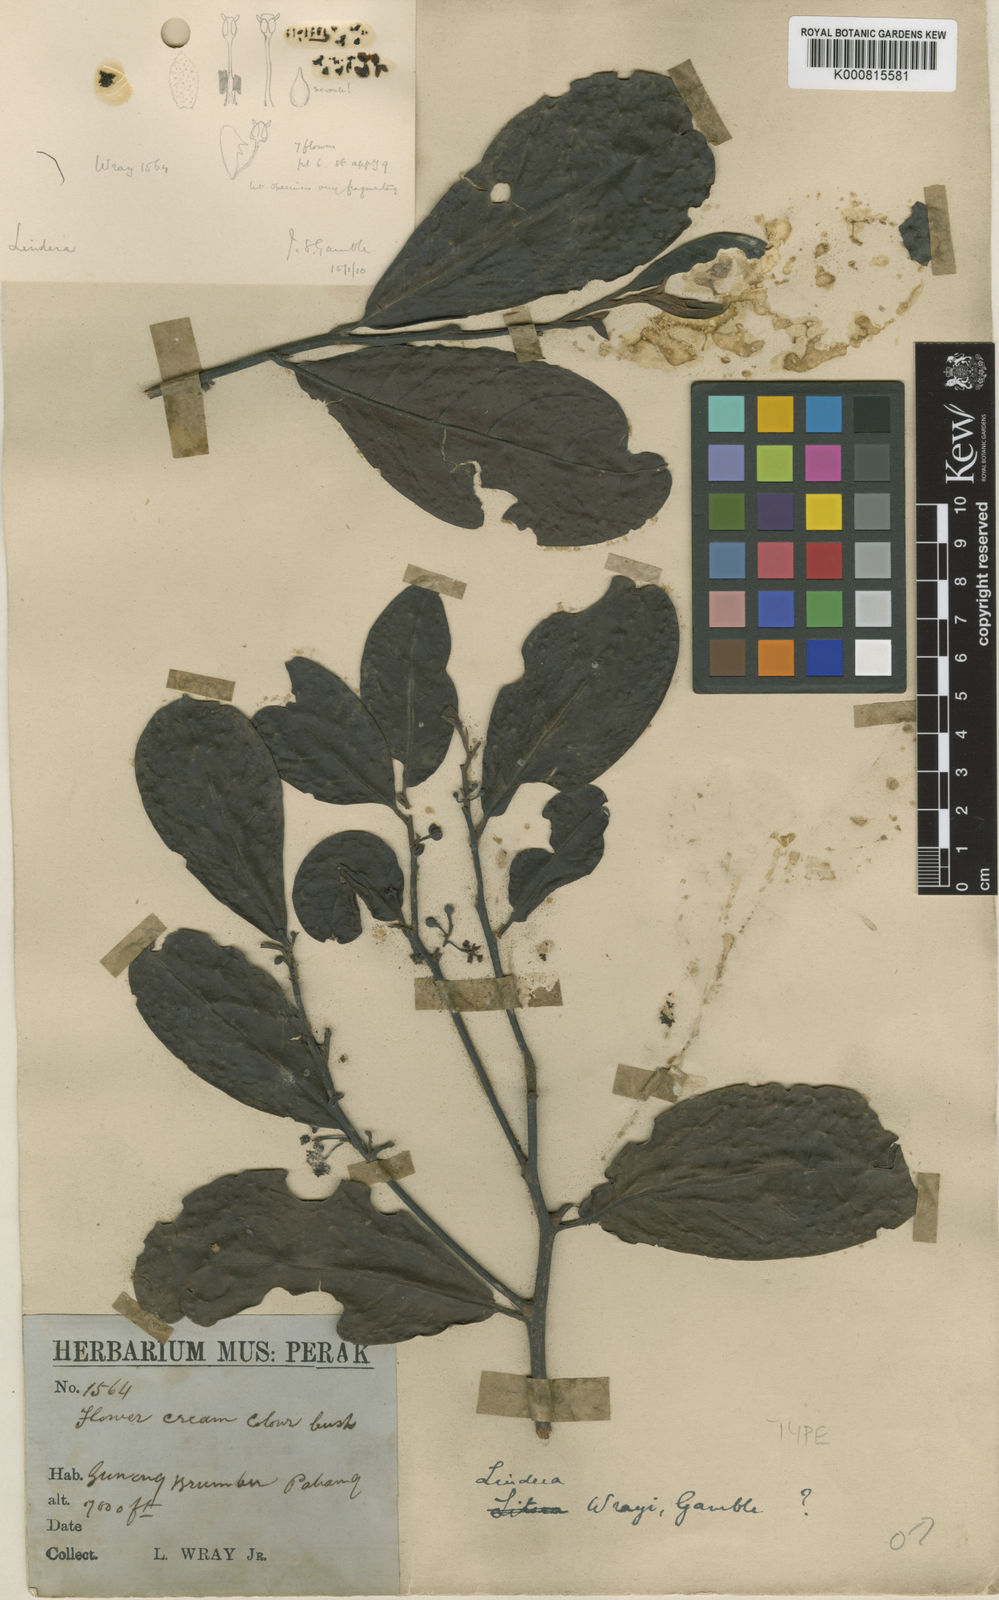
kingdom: Plantae
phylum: Tracheophyta
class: Magnoliopsida
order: Laurales
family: Lauraceae
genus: Lindera
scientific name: Lindera wrayi
